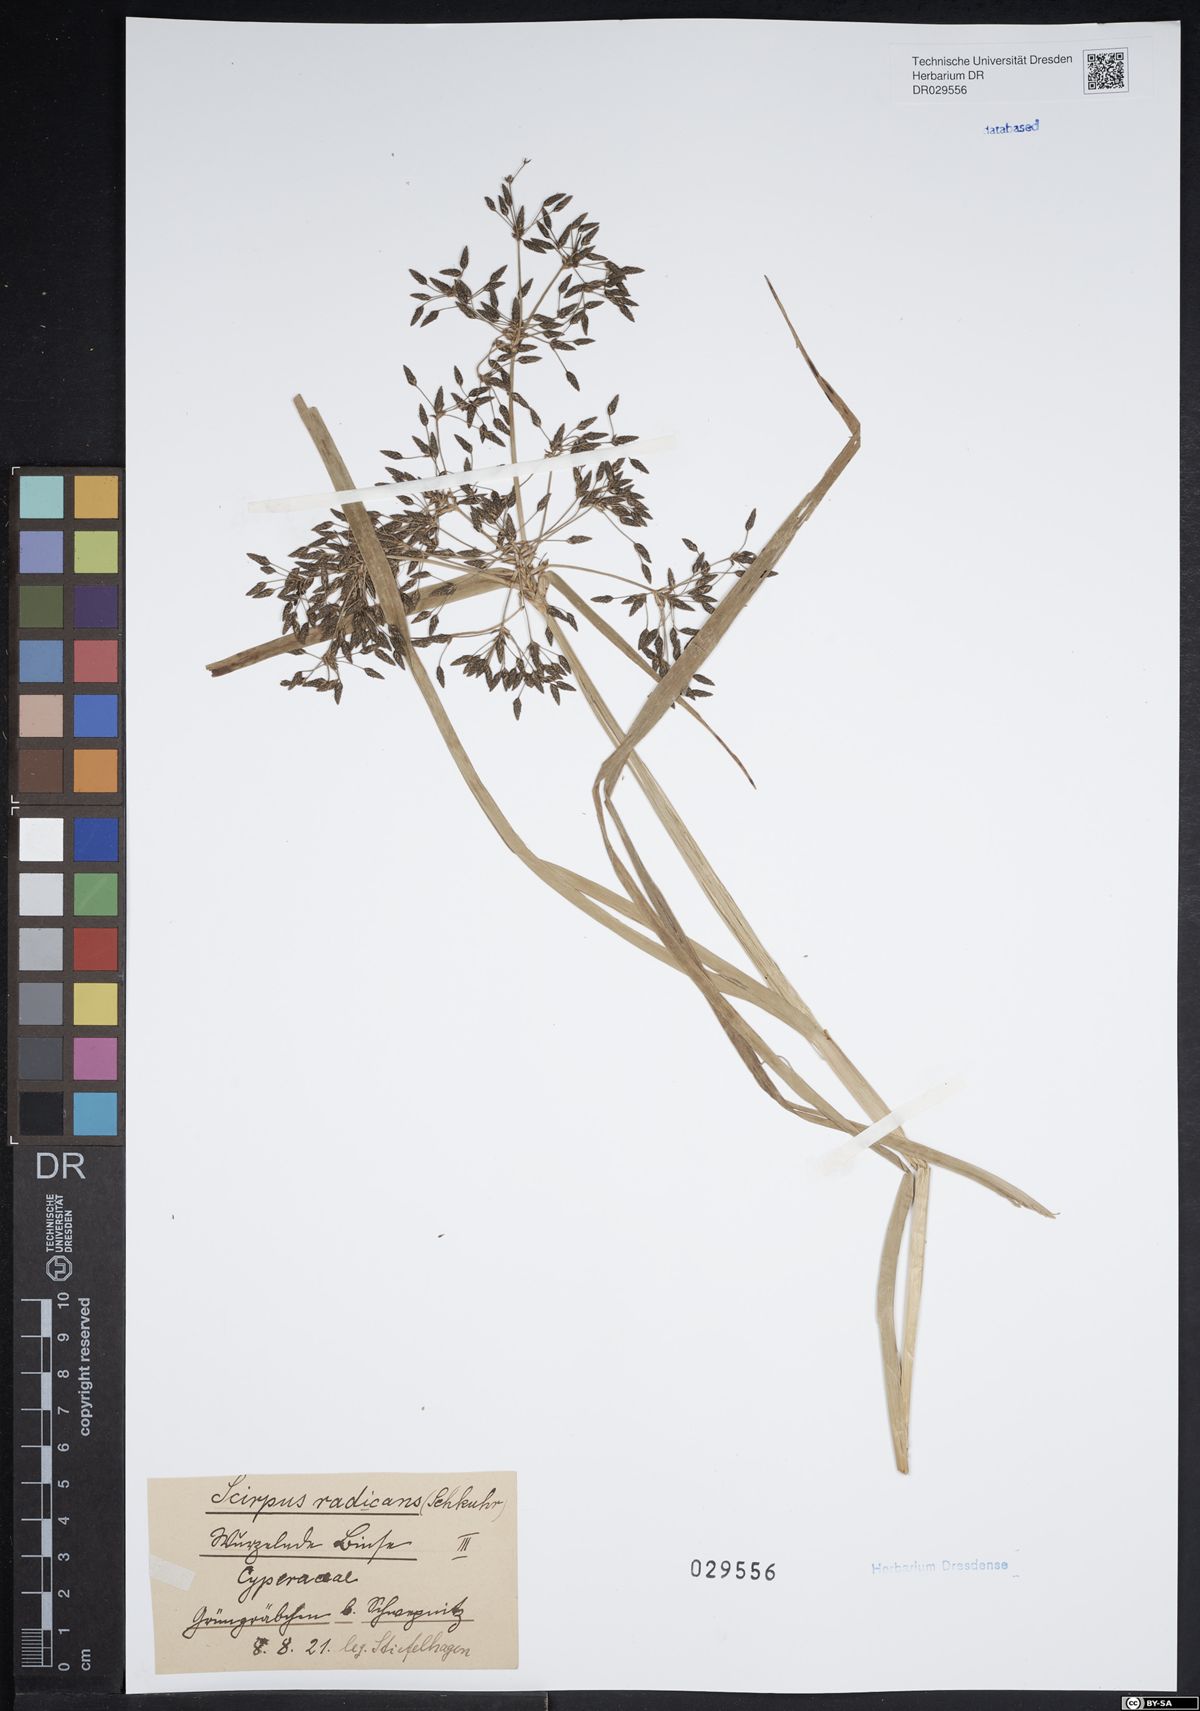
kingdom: Plantae
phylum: Tracheophyta
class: Liliopsida
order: Poales
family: Cyperaceae
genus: Scirpus
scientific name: Scirpus radicans
